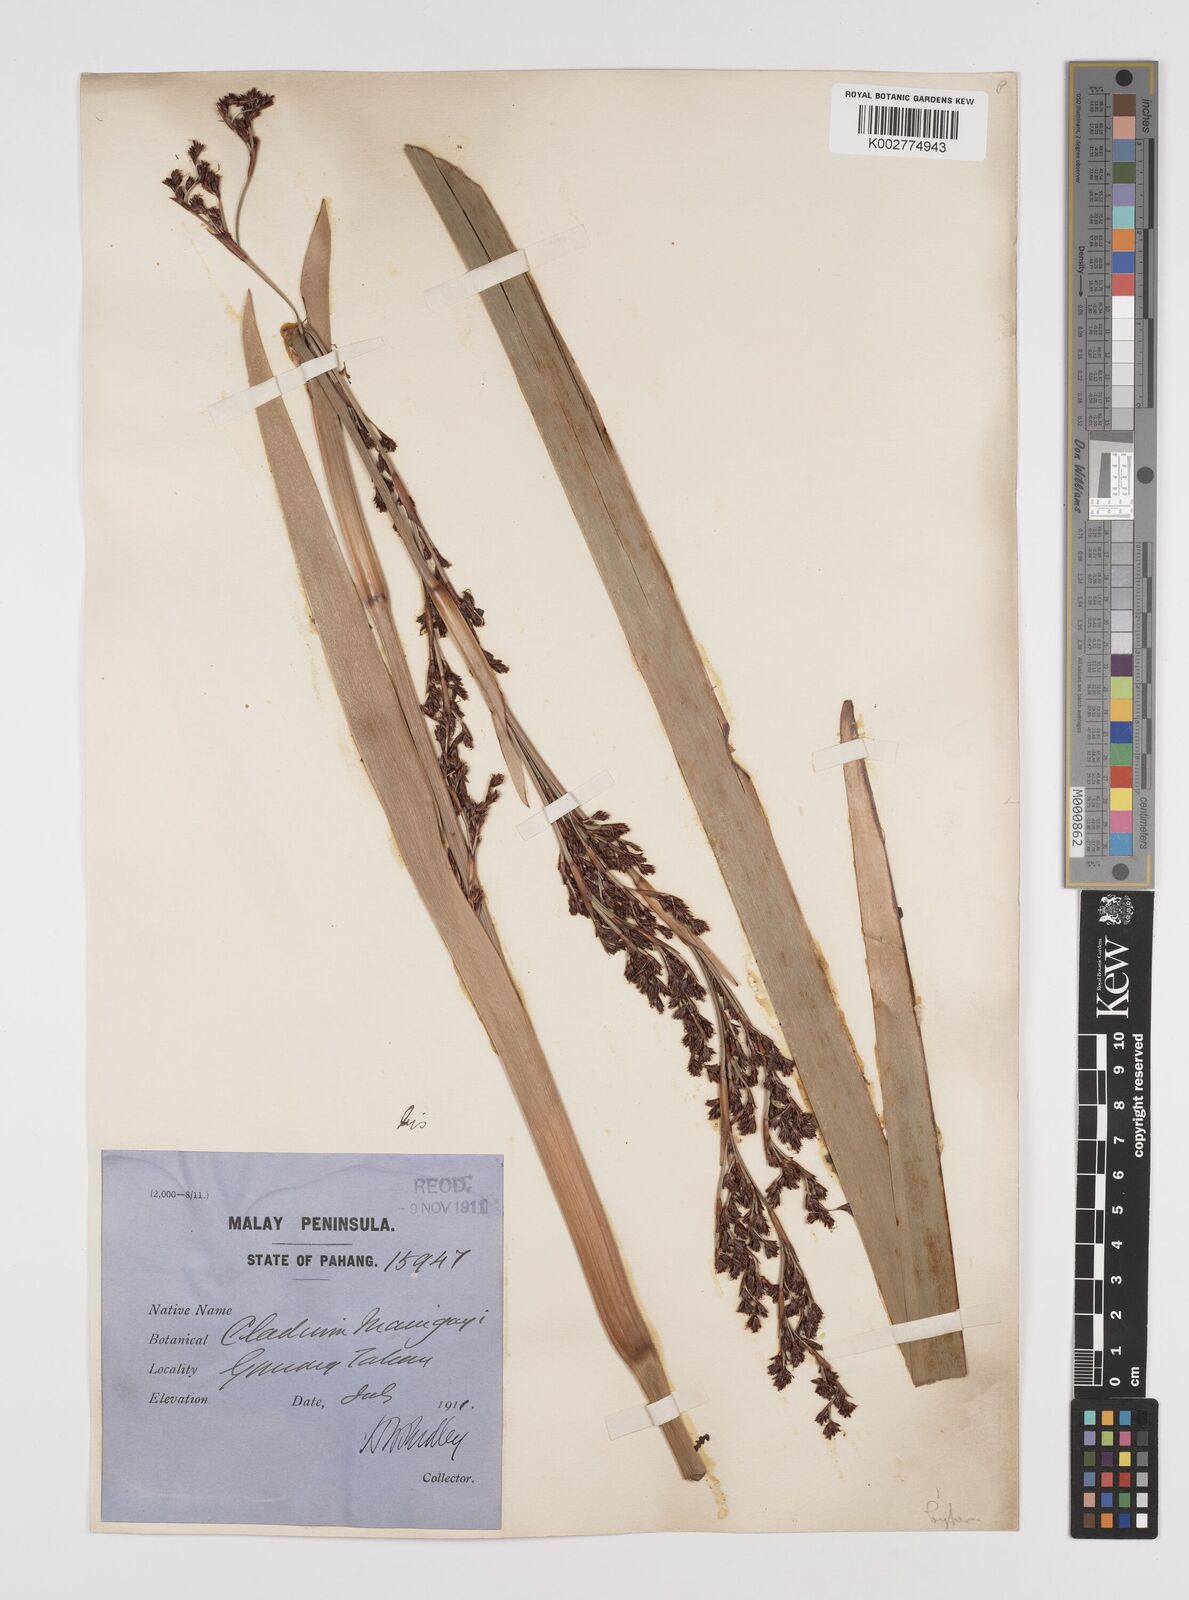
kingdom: Plantae
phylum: Tracheophyta
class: Liliopsida
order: Poales
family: Cyperaceae
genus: Machaerina
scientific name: Machaerina maingayi
